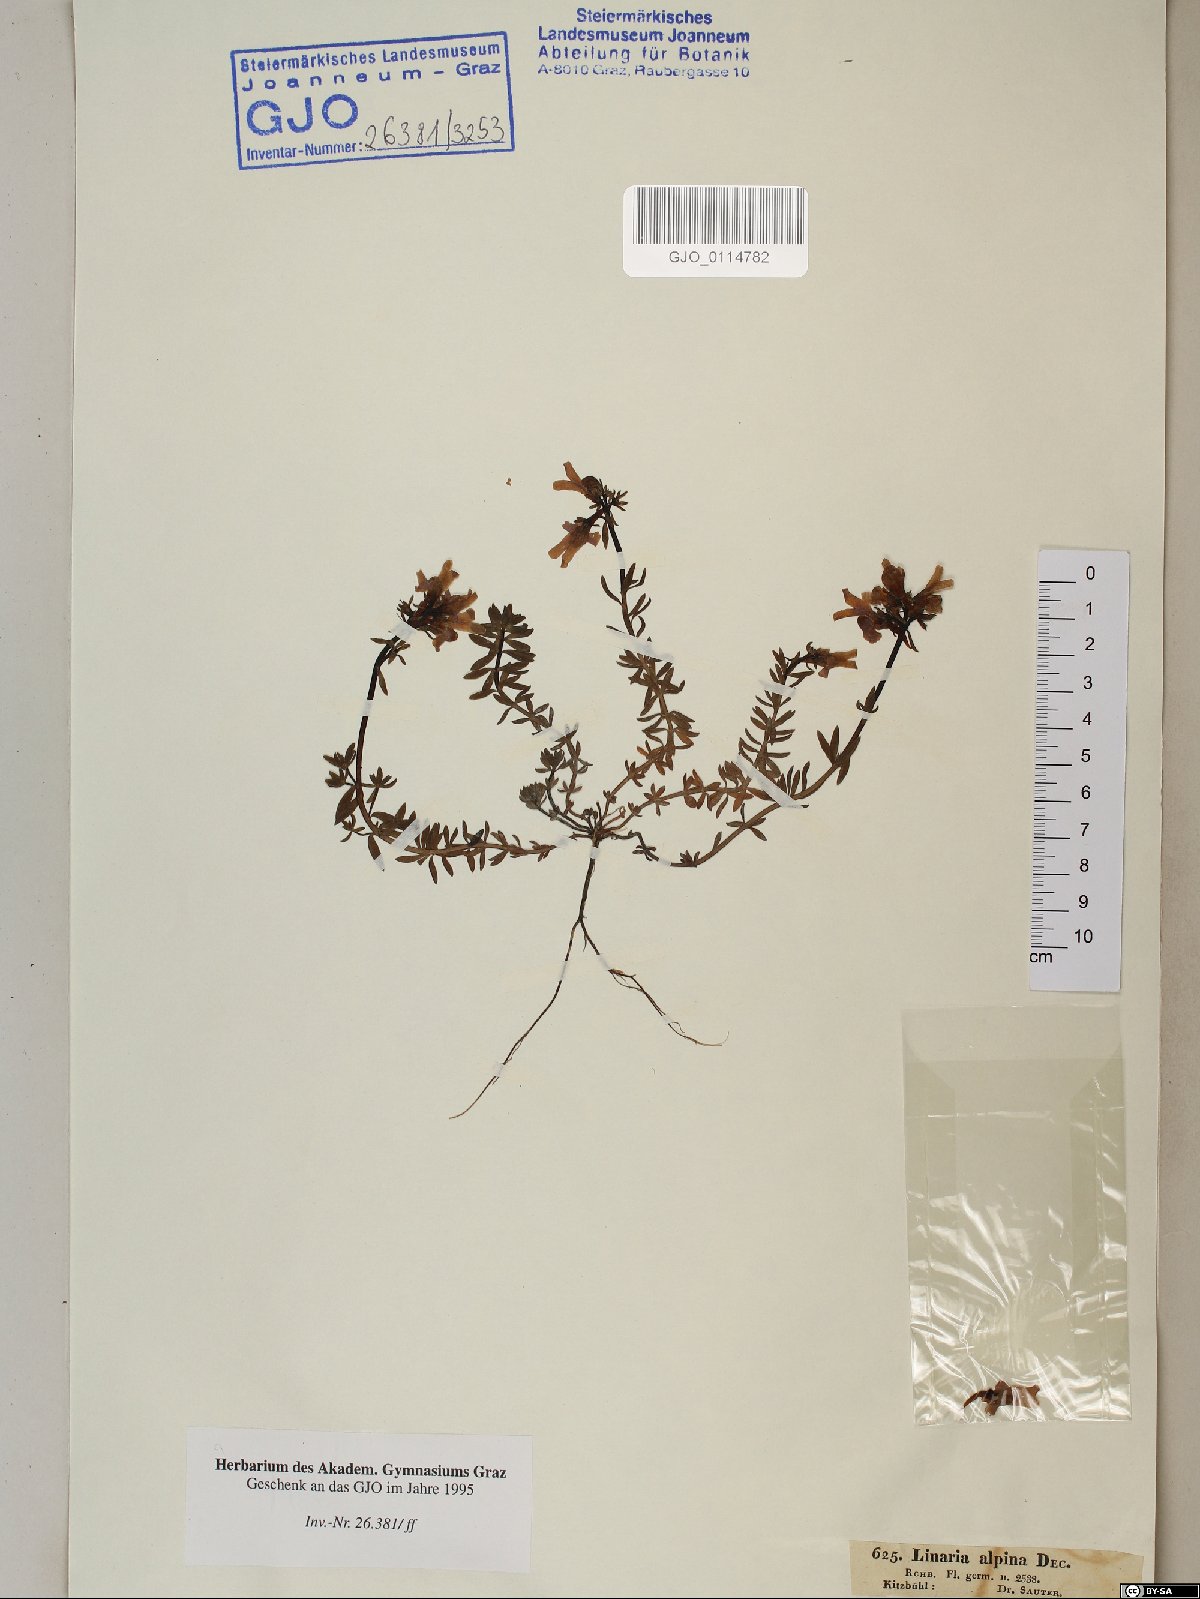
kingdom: Plantae
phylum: Tracheophyta
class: Magnoliopsida
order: Lamiales
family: Plantaginaceae
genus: Linaria
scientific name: Linaria alpina
